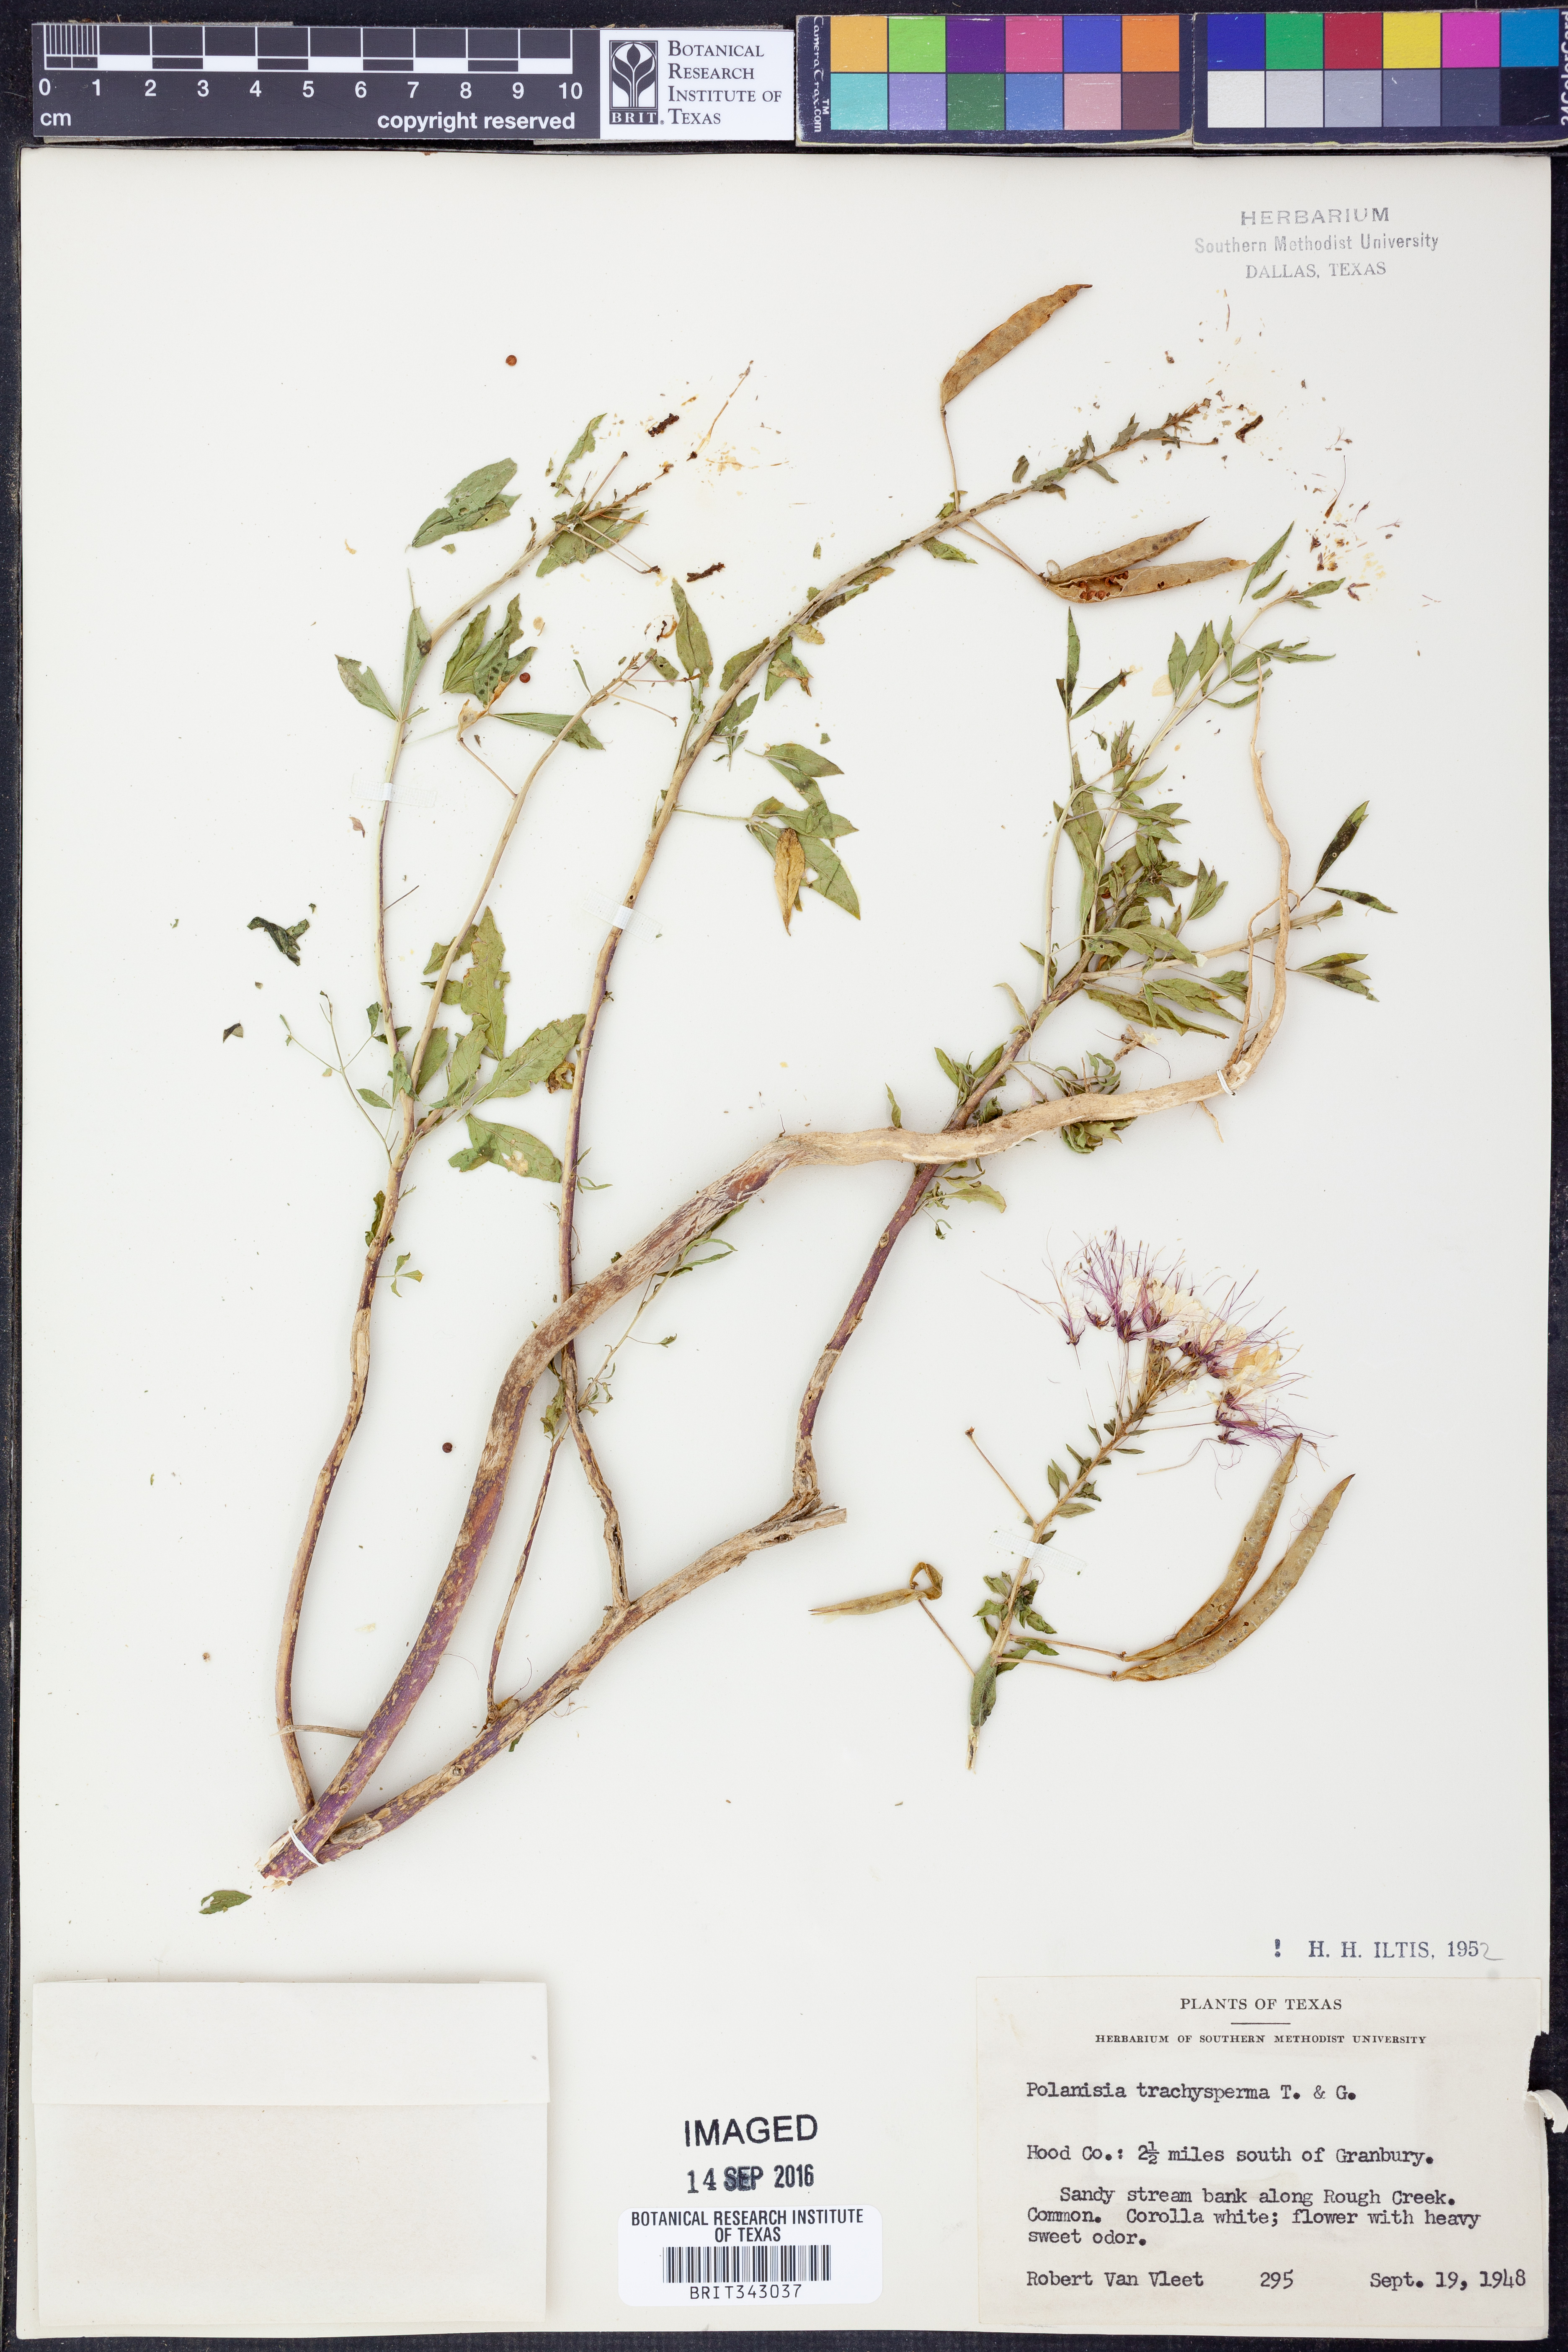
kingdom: Plantae
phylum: Tracheophyta
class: Magnoliopsida
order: Brassicales
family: Cleomaceae
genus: Polanisia
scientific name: Polanisia trachysperma
